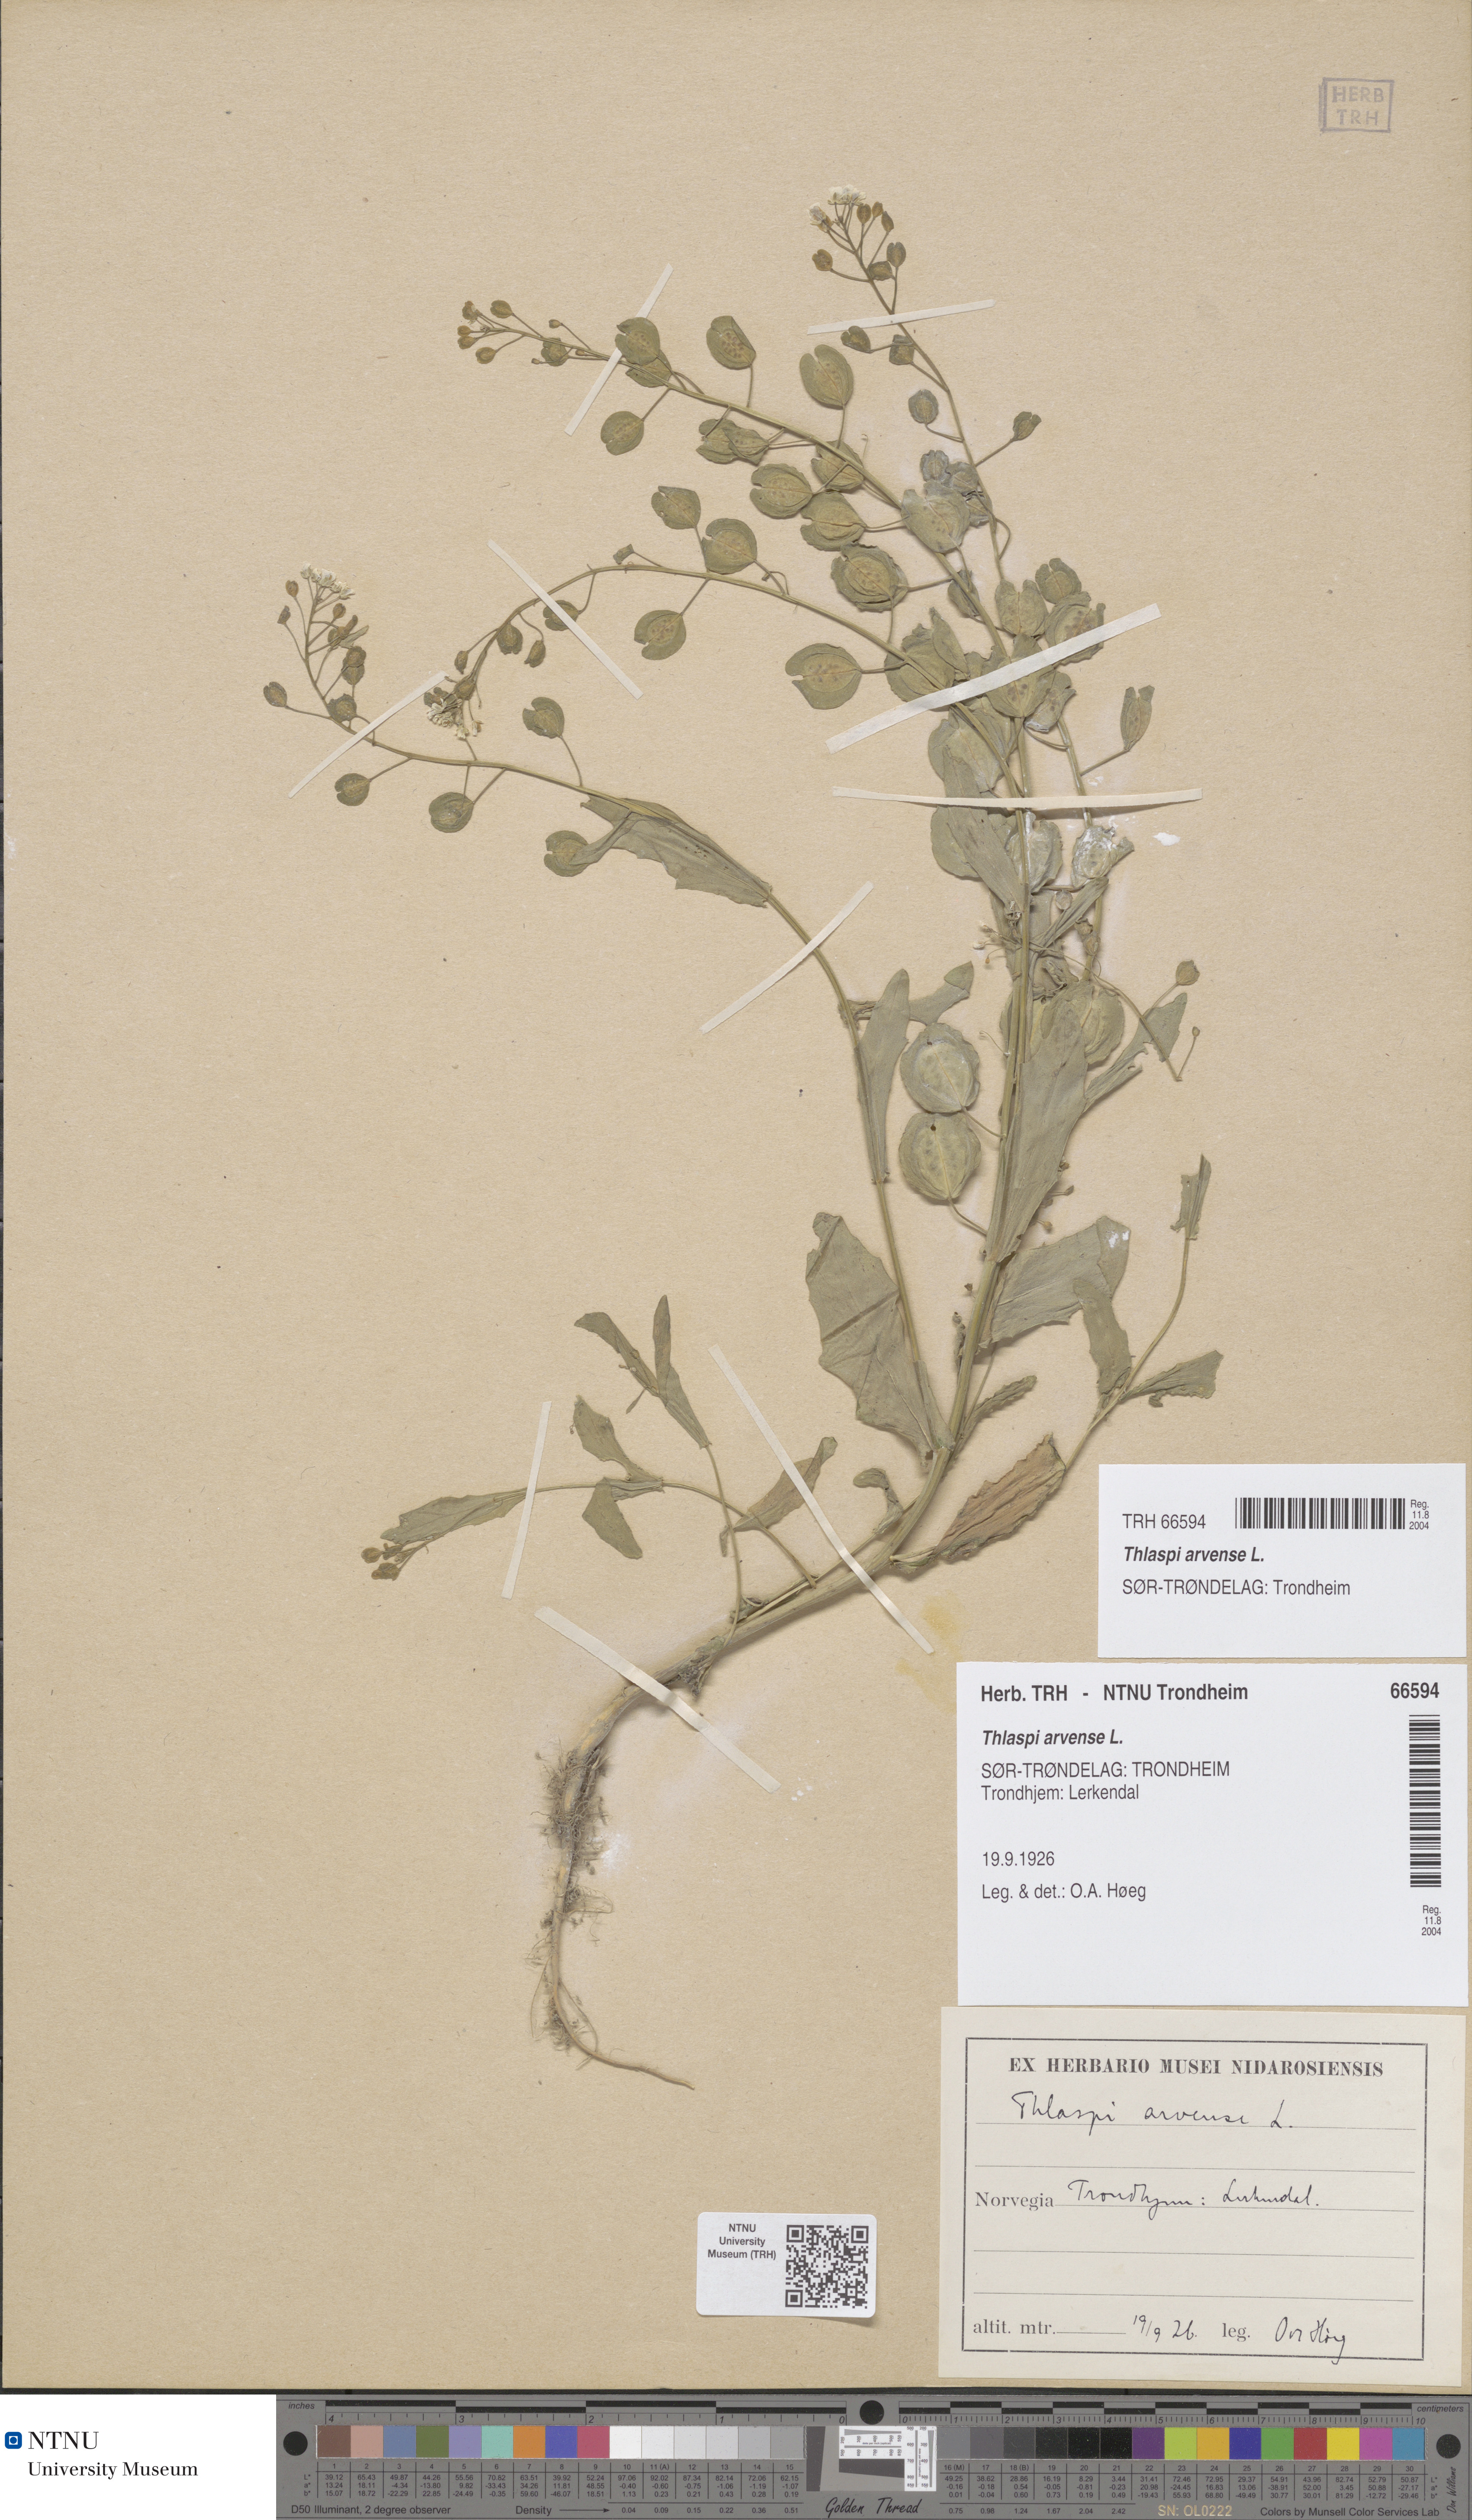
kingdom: Plantae
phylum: Tracheophyta
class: Magnoliopsida
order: Brassicales
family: Brassicaceae
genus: Thlaspi
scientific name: Thlaspi arvense
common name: Field pennycress
